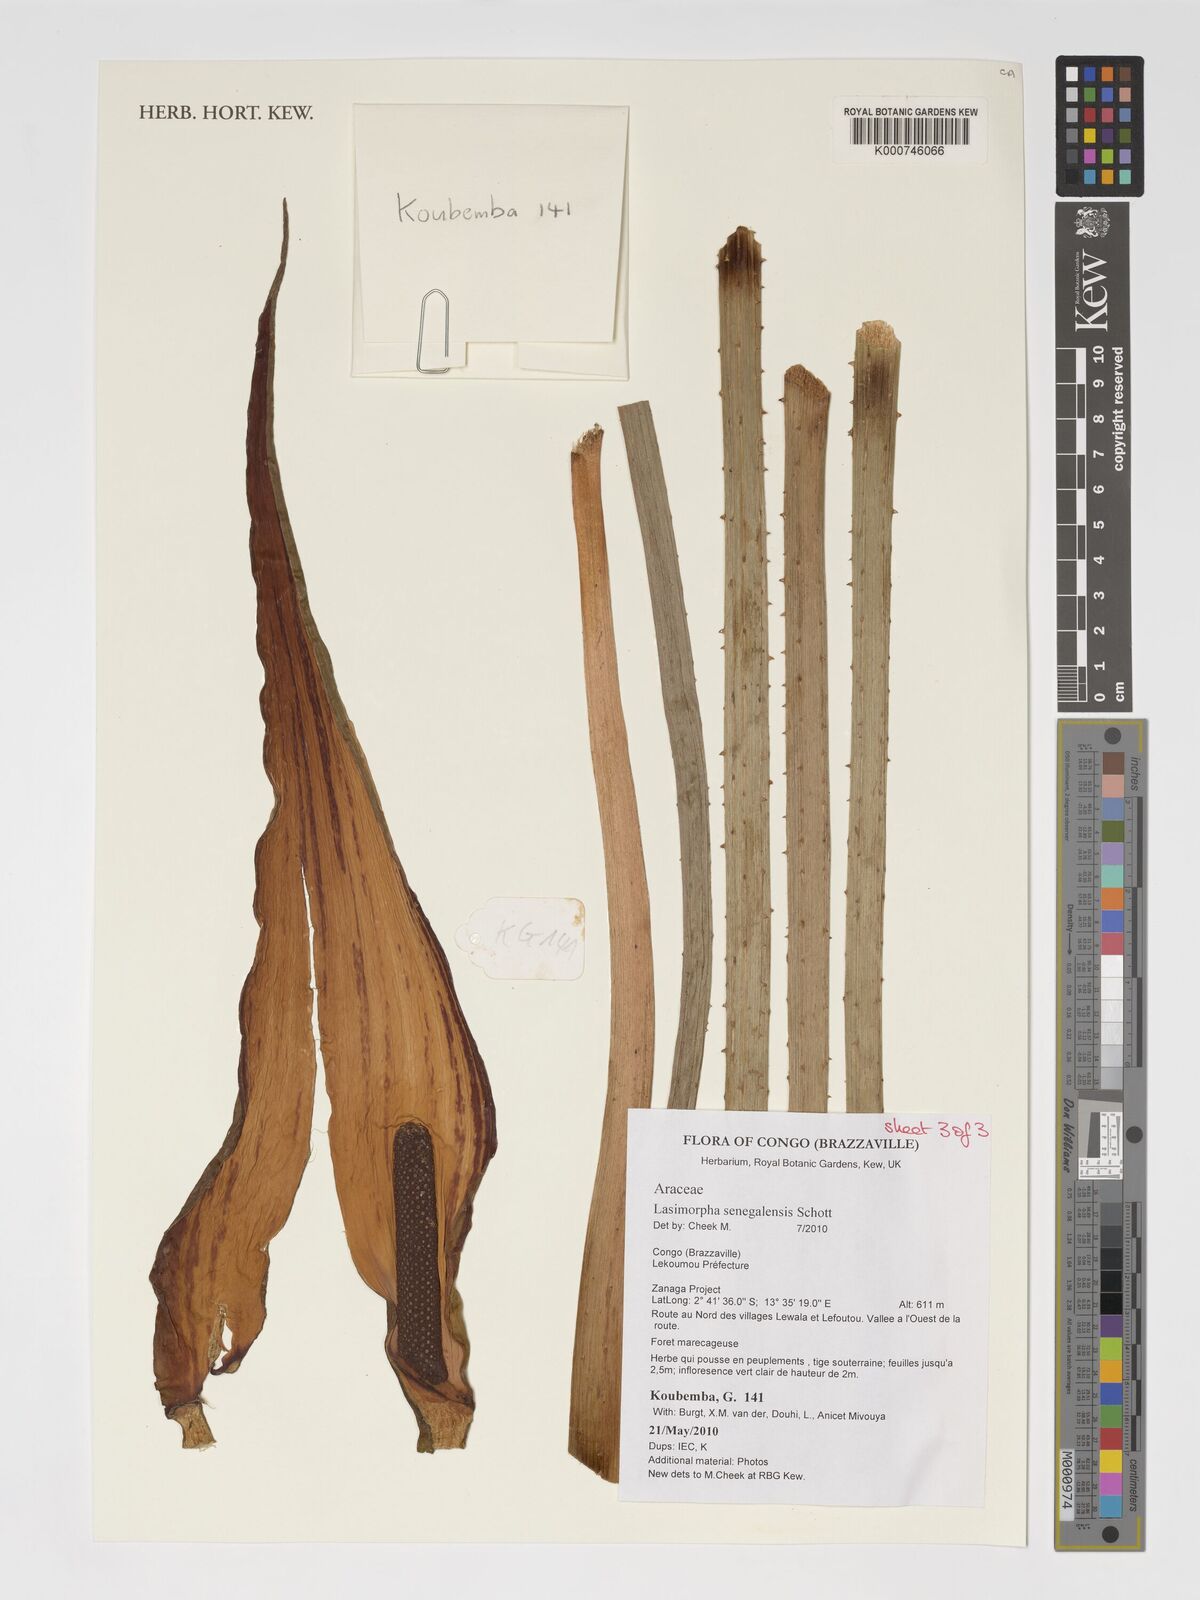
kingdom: Plantae
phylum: Tracheophyta
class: Liliopsida
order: Alismatales
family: Araceae
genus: Lasimorpha
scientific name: Lasimorpha senegalensis
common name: Swamp arum
